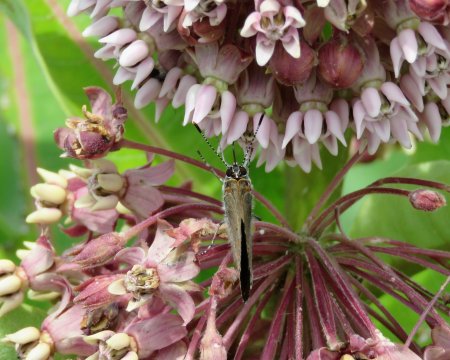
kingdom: Animalia
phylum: Arthropoda
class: Insecta
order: Lepidoptera
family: Lycaenidae
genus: Harkenclenus
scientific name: Harkenclenus titus
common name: Coral Hairstreak
